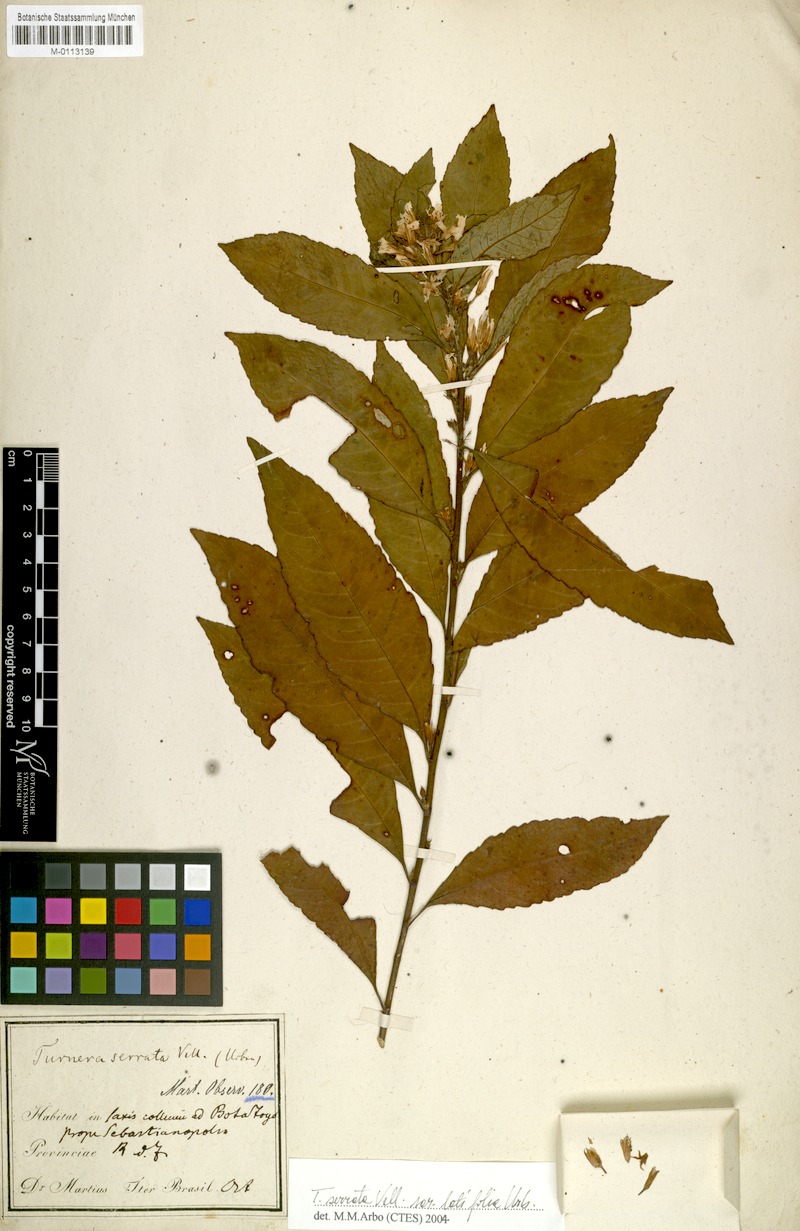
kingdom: Plantae
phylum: Tracheophyta
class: Magnoliopsida
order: Malpighiales
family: Turneraceae
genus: Turnera
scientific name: Turnera serrata
